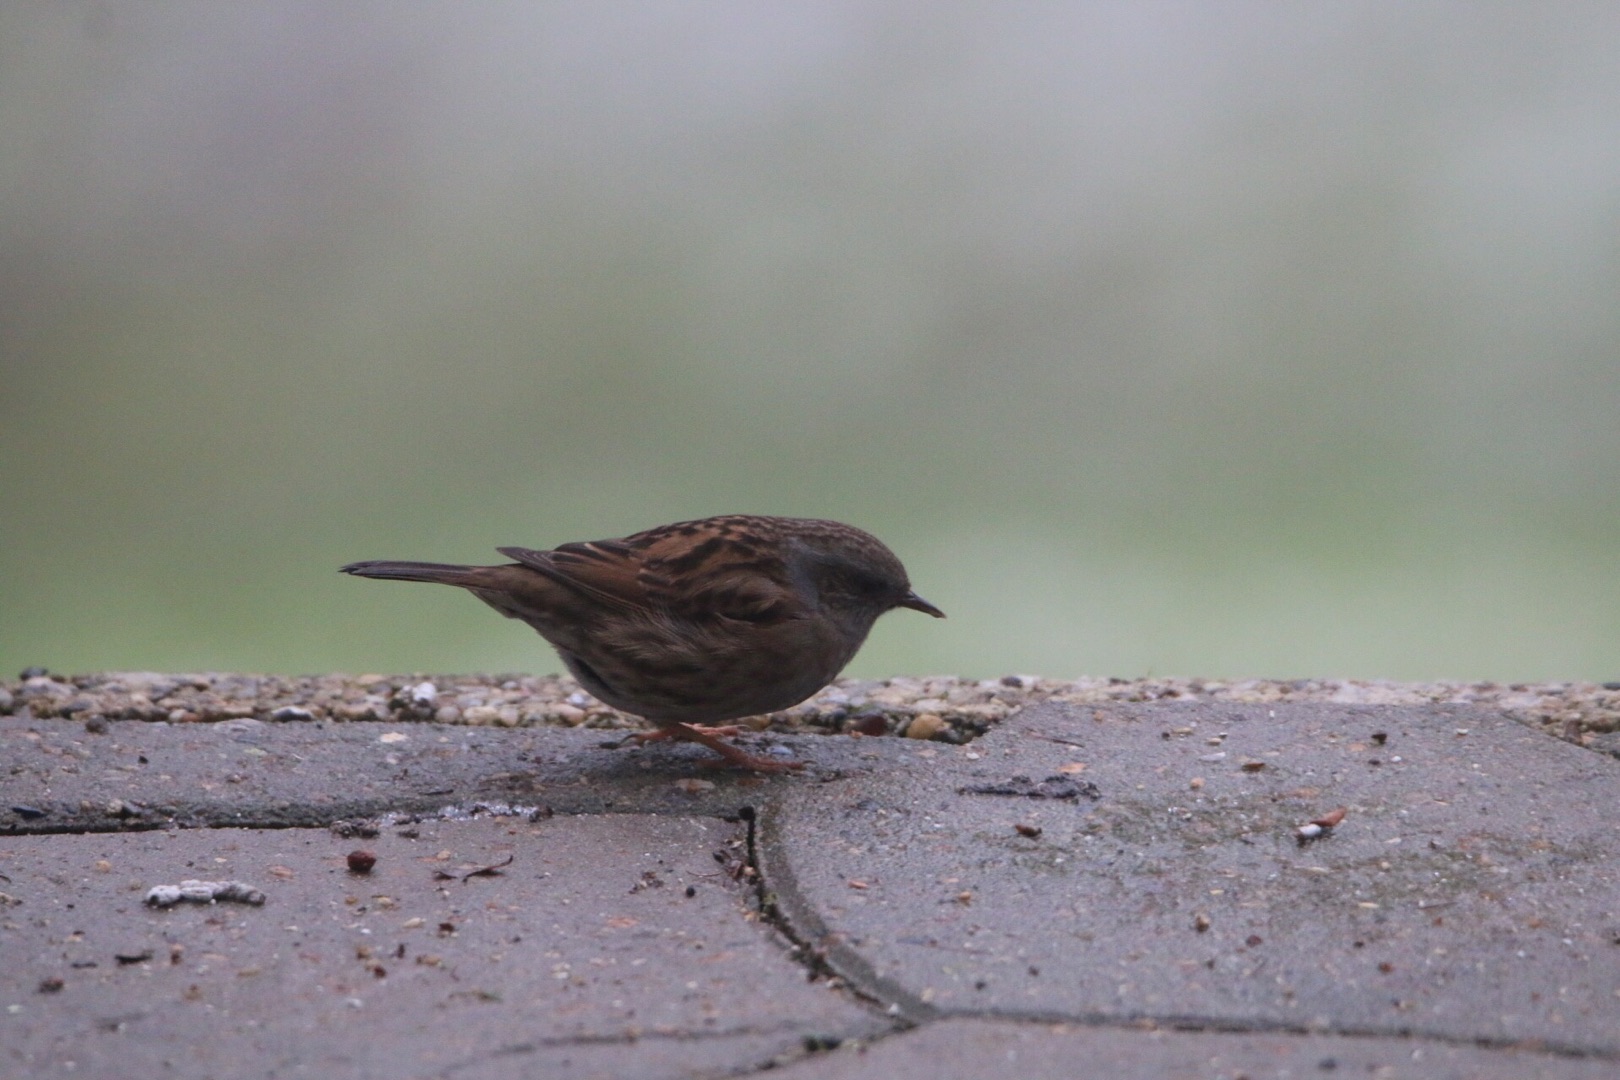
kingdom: Animalia
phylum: Chordata
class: Aves
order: Passeriformes
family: Prunellidae
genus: Prunella
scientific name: Prunella modularis
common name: Jernspurv
